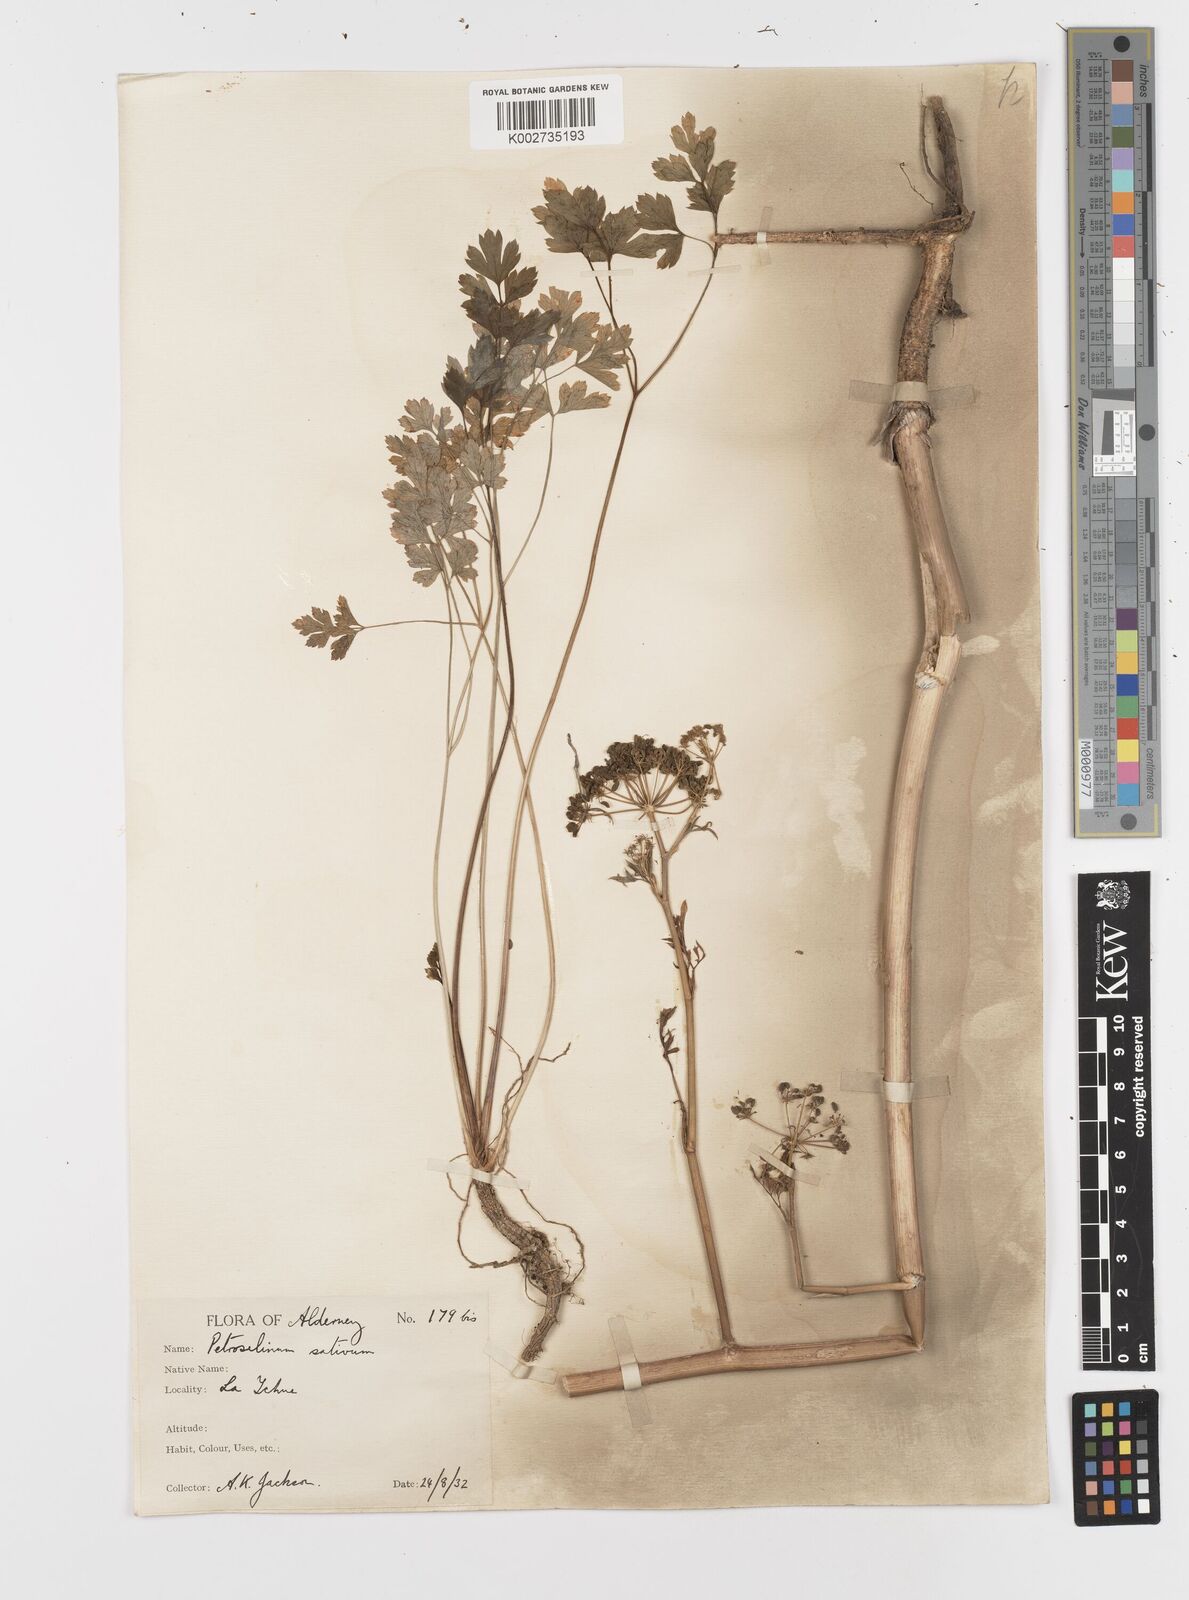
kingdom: Plantae
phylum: Tracheophyta
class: Magnoliopsida
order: Apiales
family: Apiaceae
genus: Petroselinum
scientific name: Petroselinum crispum
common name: Parsley
